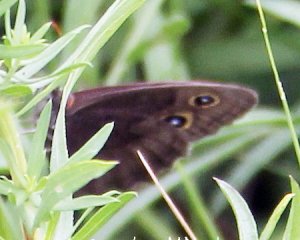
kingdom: Animalia
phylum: Arthropoda
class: Insecta
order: Lepidoptera
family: Nymphalidae
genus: Cercyonis
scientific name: Cercyonis pegala
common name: Common Wood-Nymph
